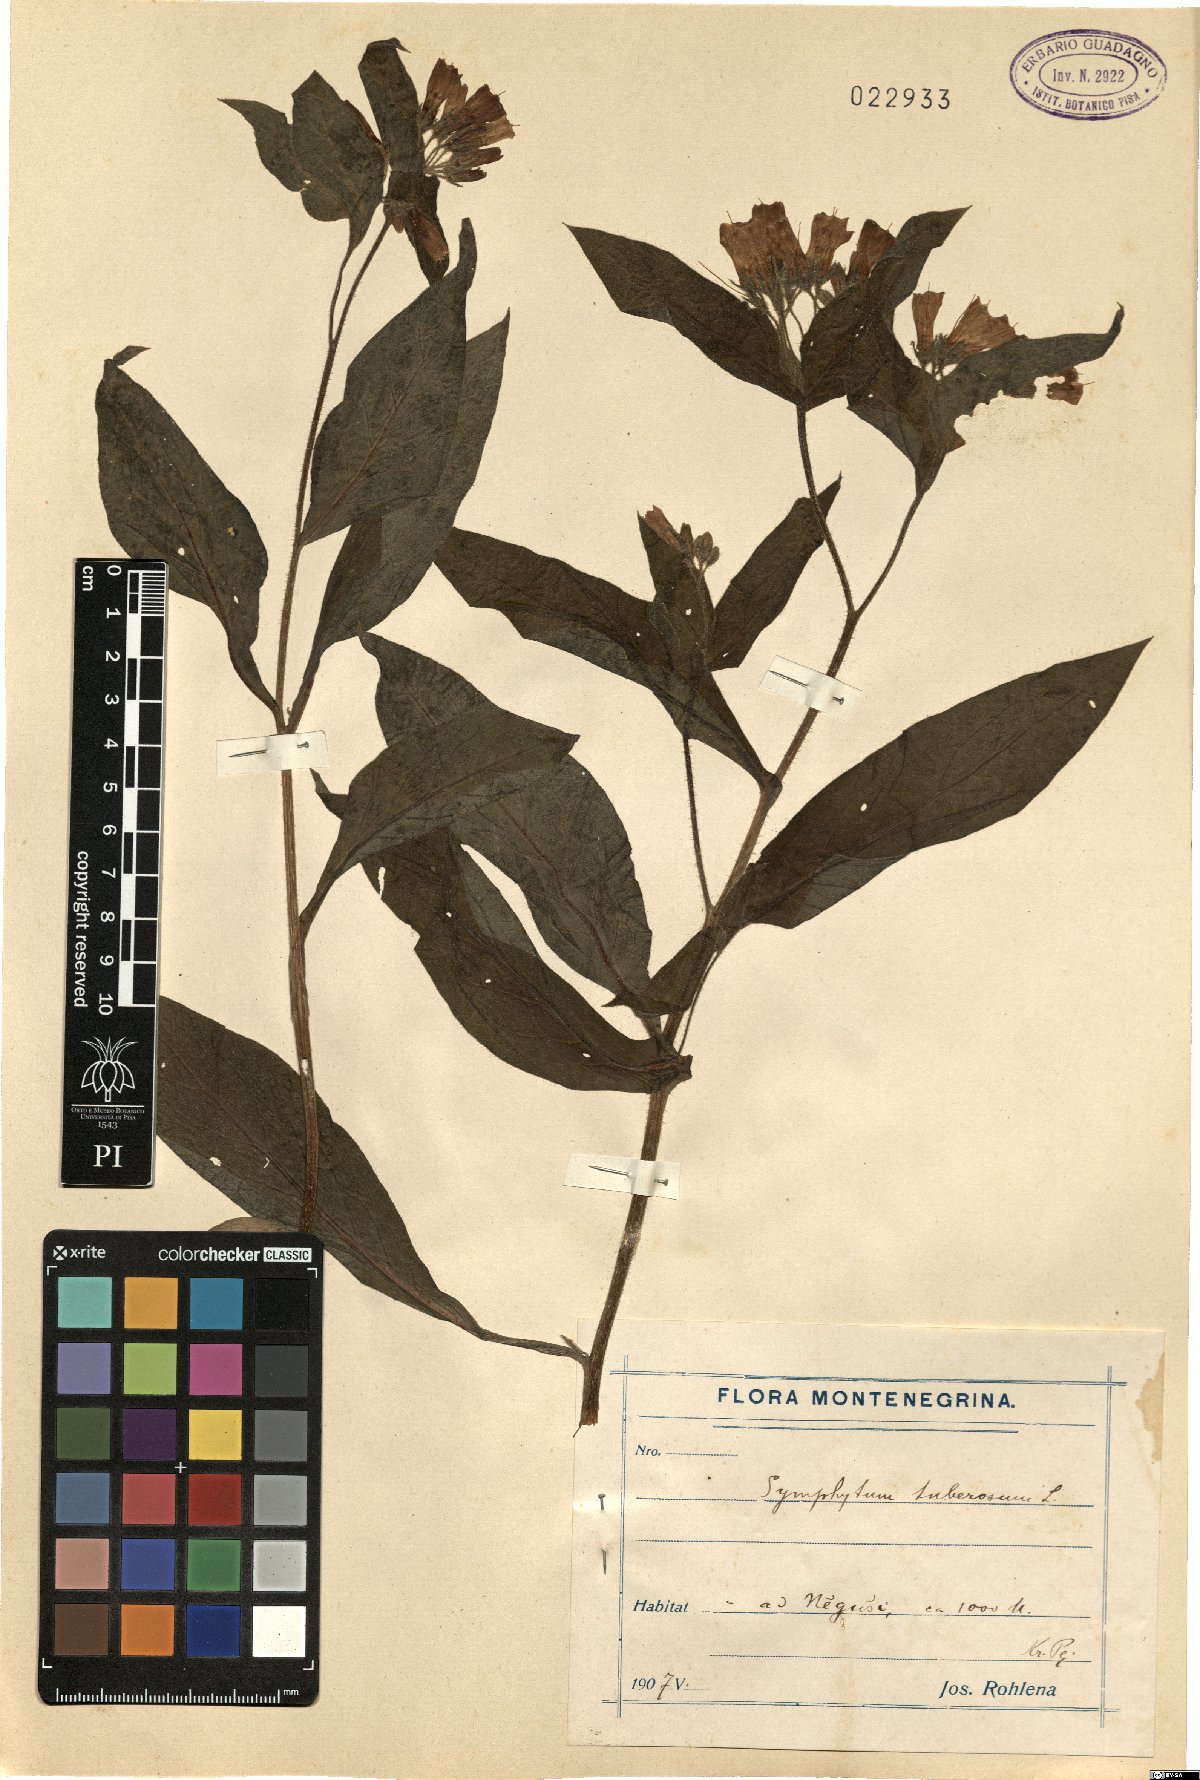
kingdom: Plantae
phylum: Tracheophyta
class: Magnoliopsida
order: Boraginales
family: Boraginaceae
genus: Symphytum
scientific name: Symphytum tuberosum
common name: Tuberous comfrey
